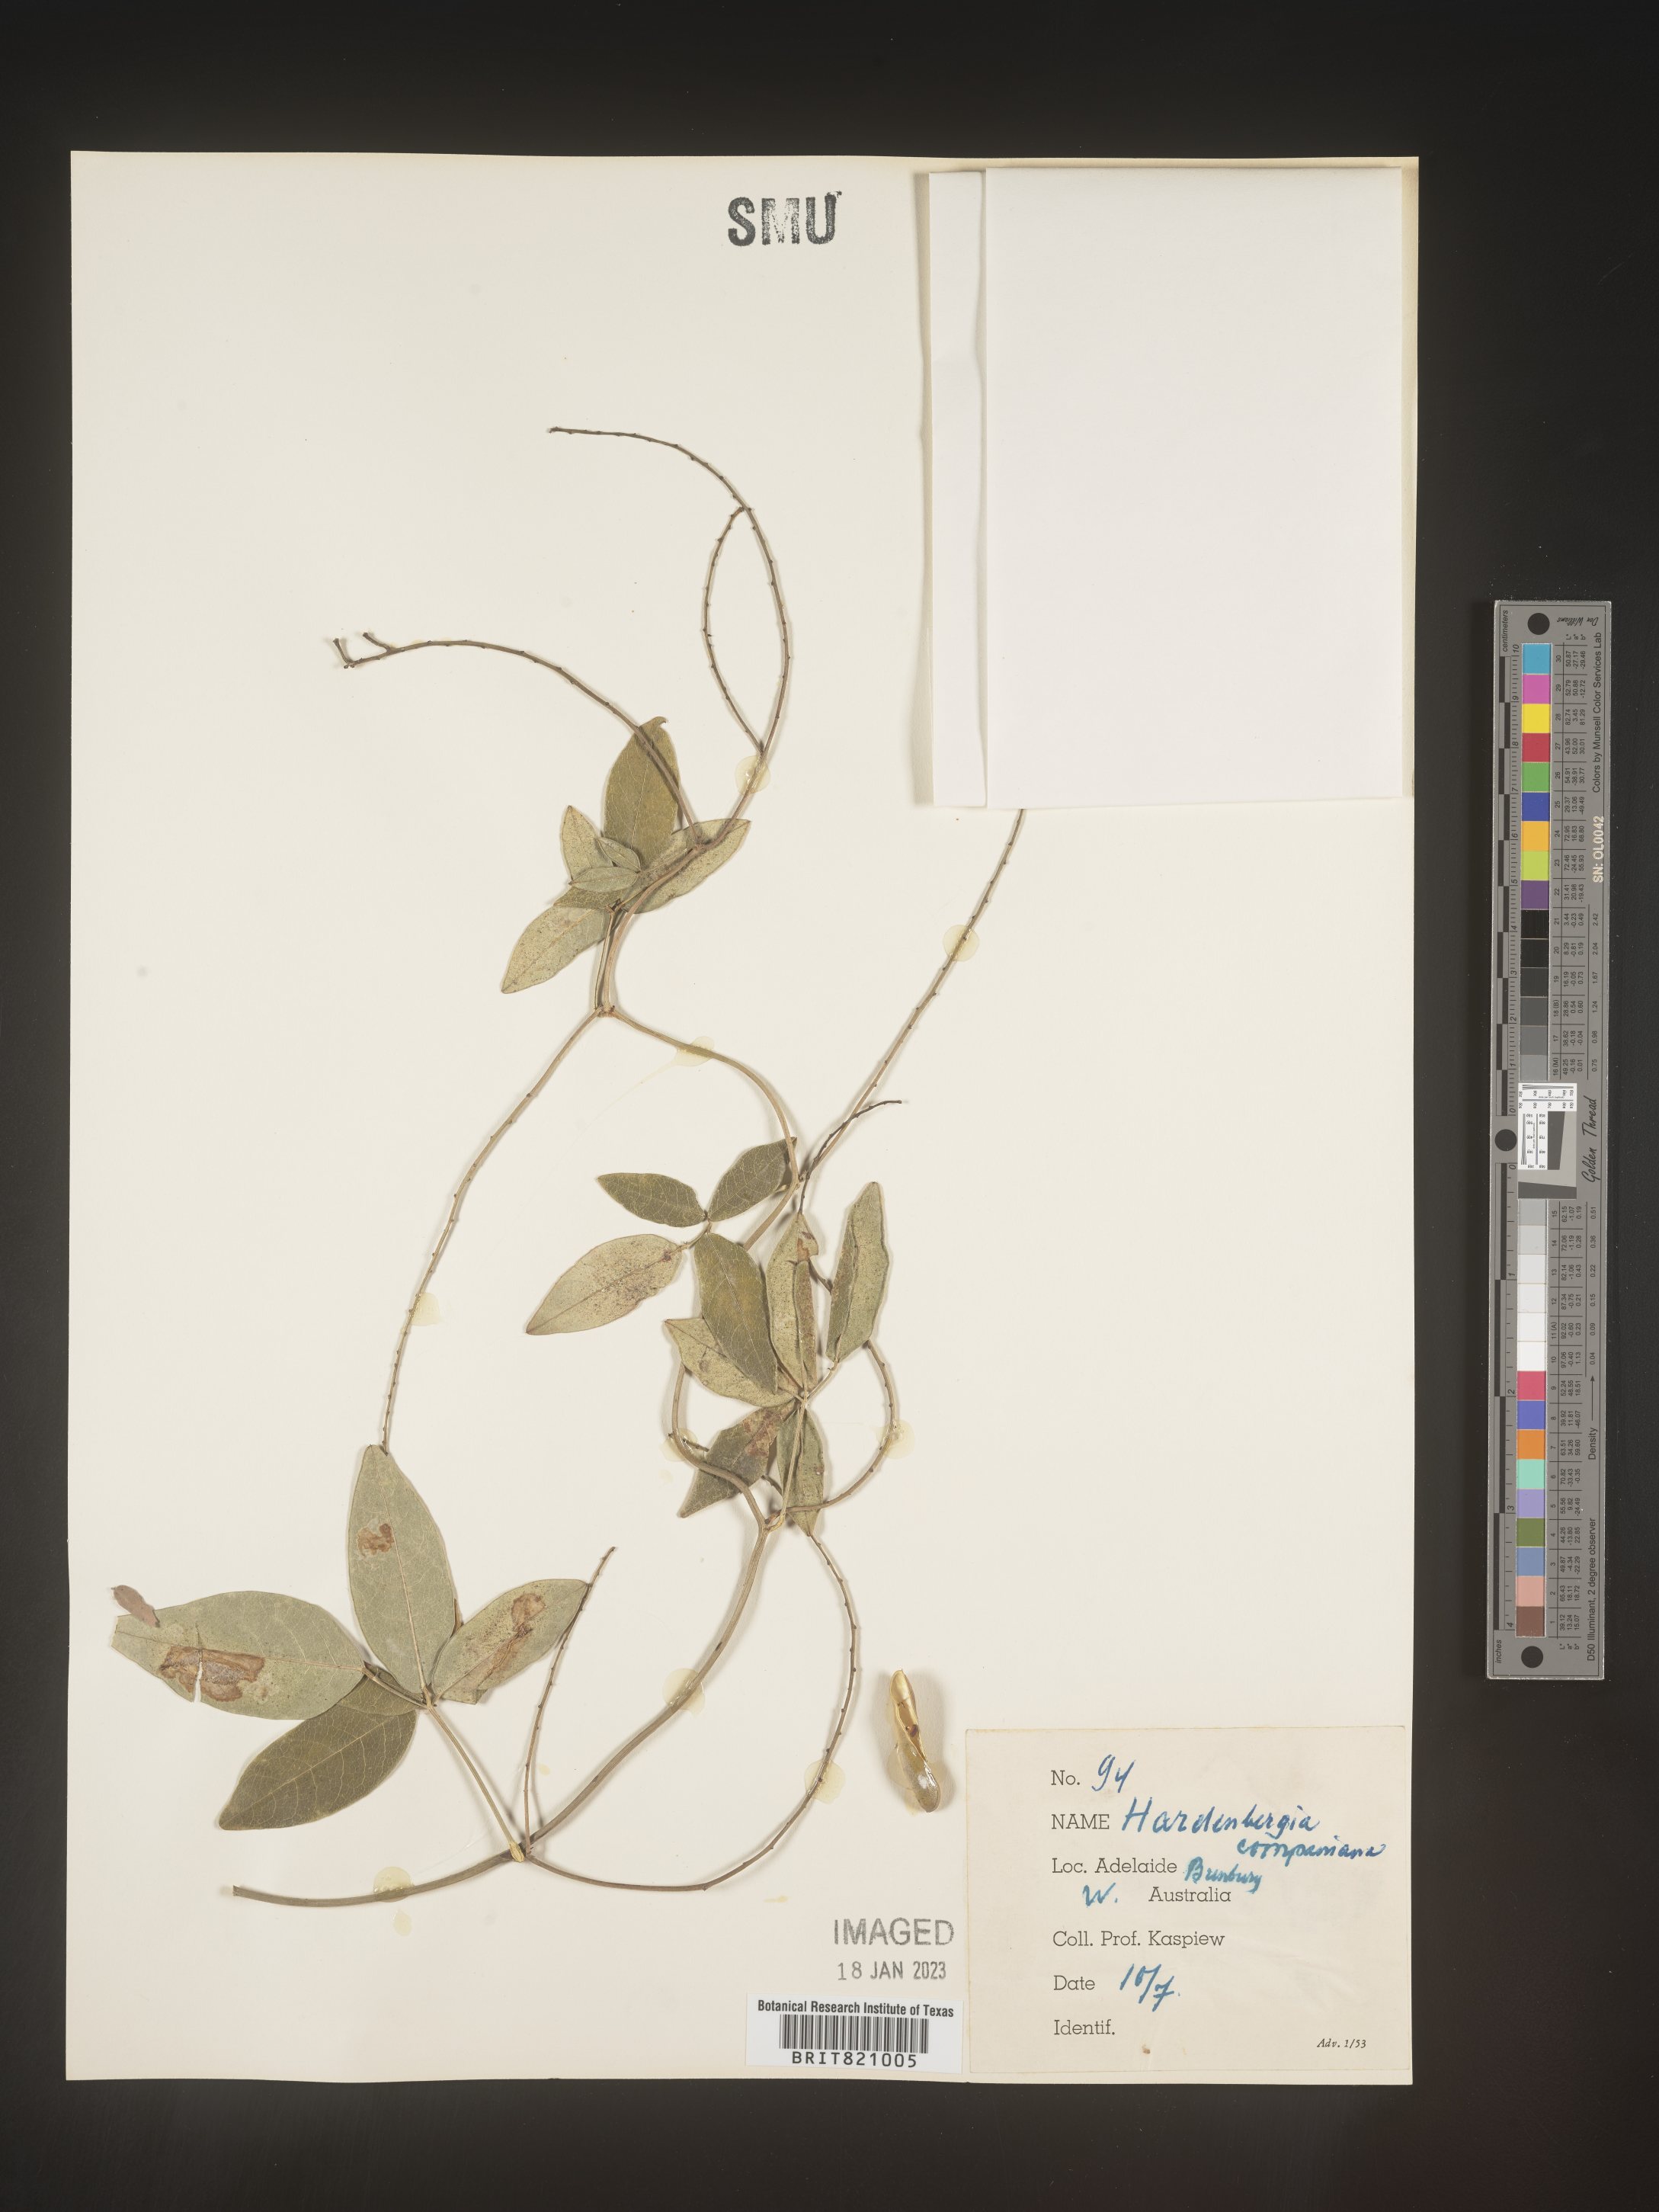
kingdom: Plantae
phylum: Tracheophyta
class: Magnoliopsida
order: Fabales
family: Fabaceae
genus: Hardenbergia
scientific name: Hardenbergia
